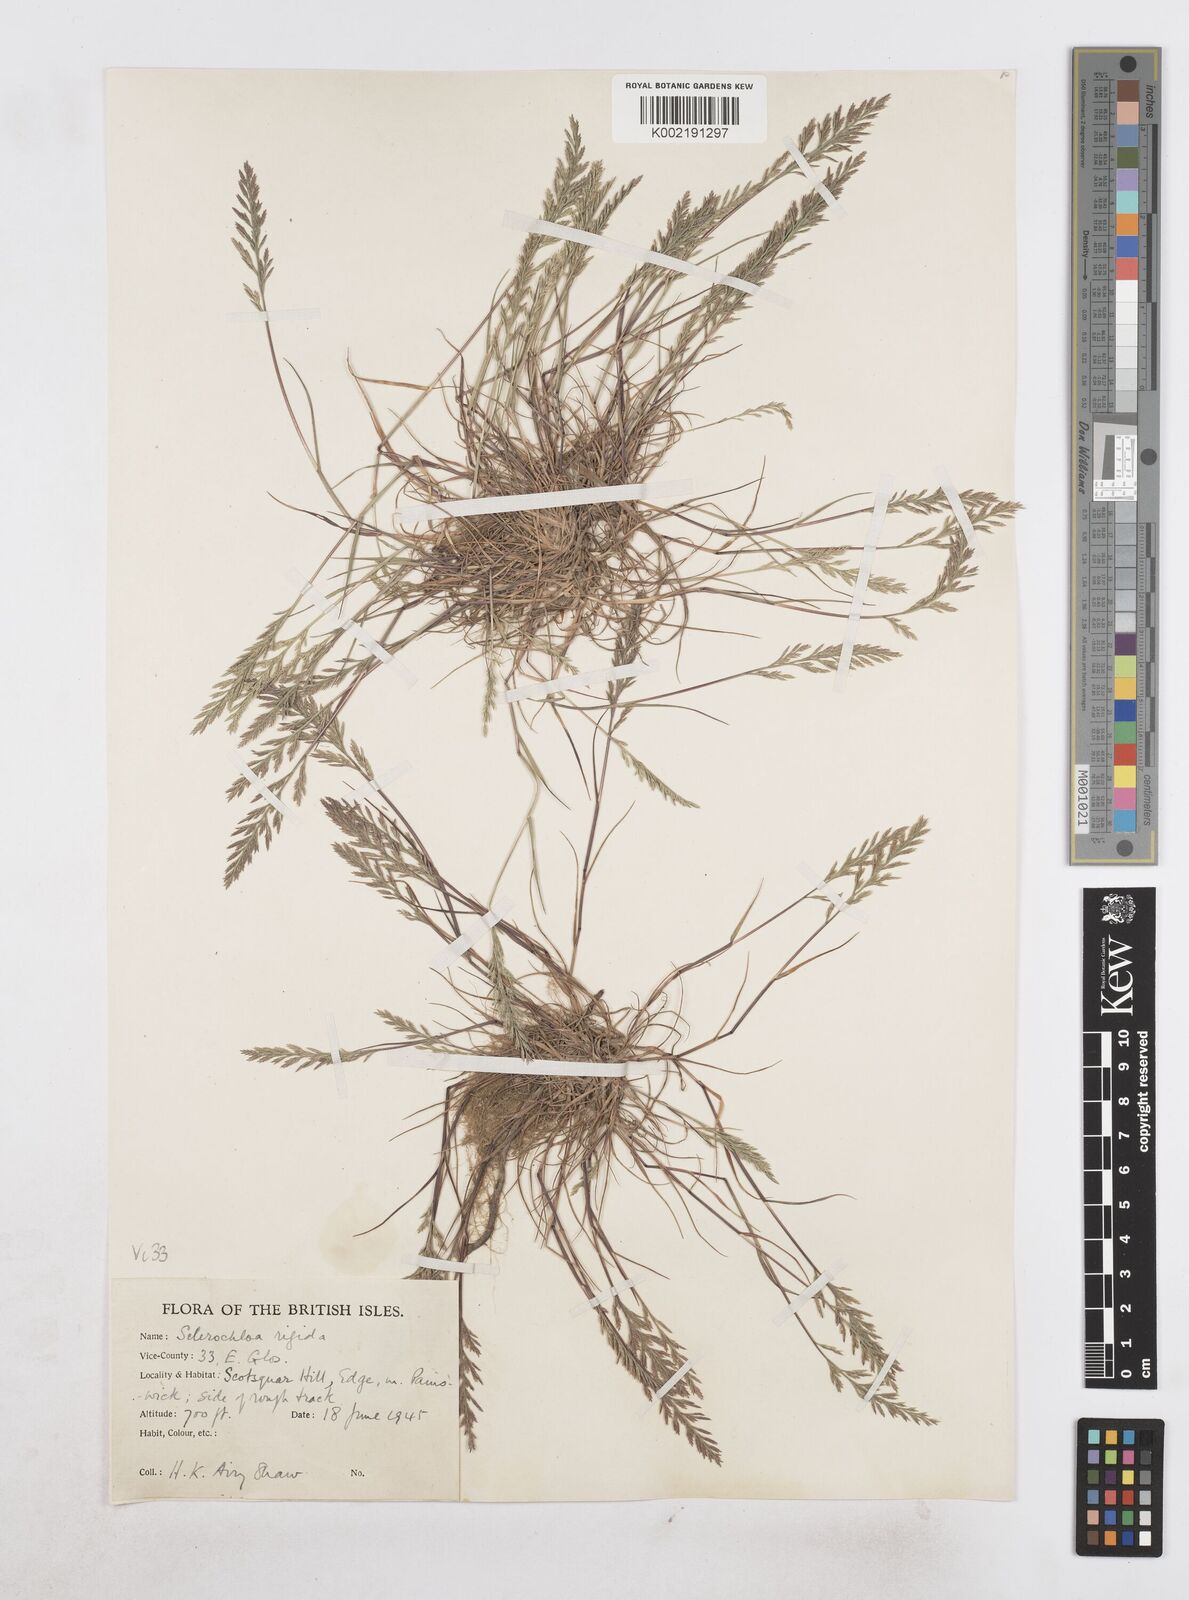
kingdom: Plantae
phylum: Tracheophyta
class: Liliopsida
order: Poales
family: Poaceae
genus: Catapodium
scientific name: Catapodium rigidum
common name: Fern-grass
